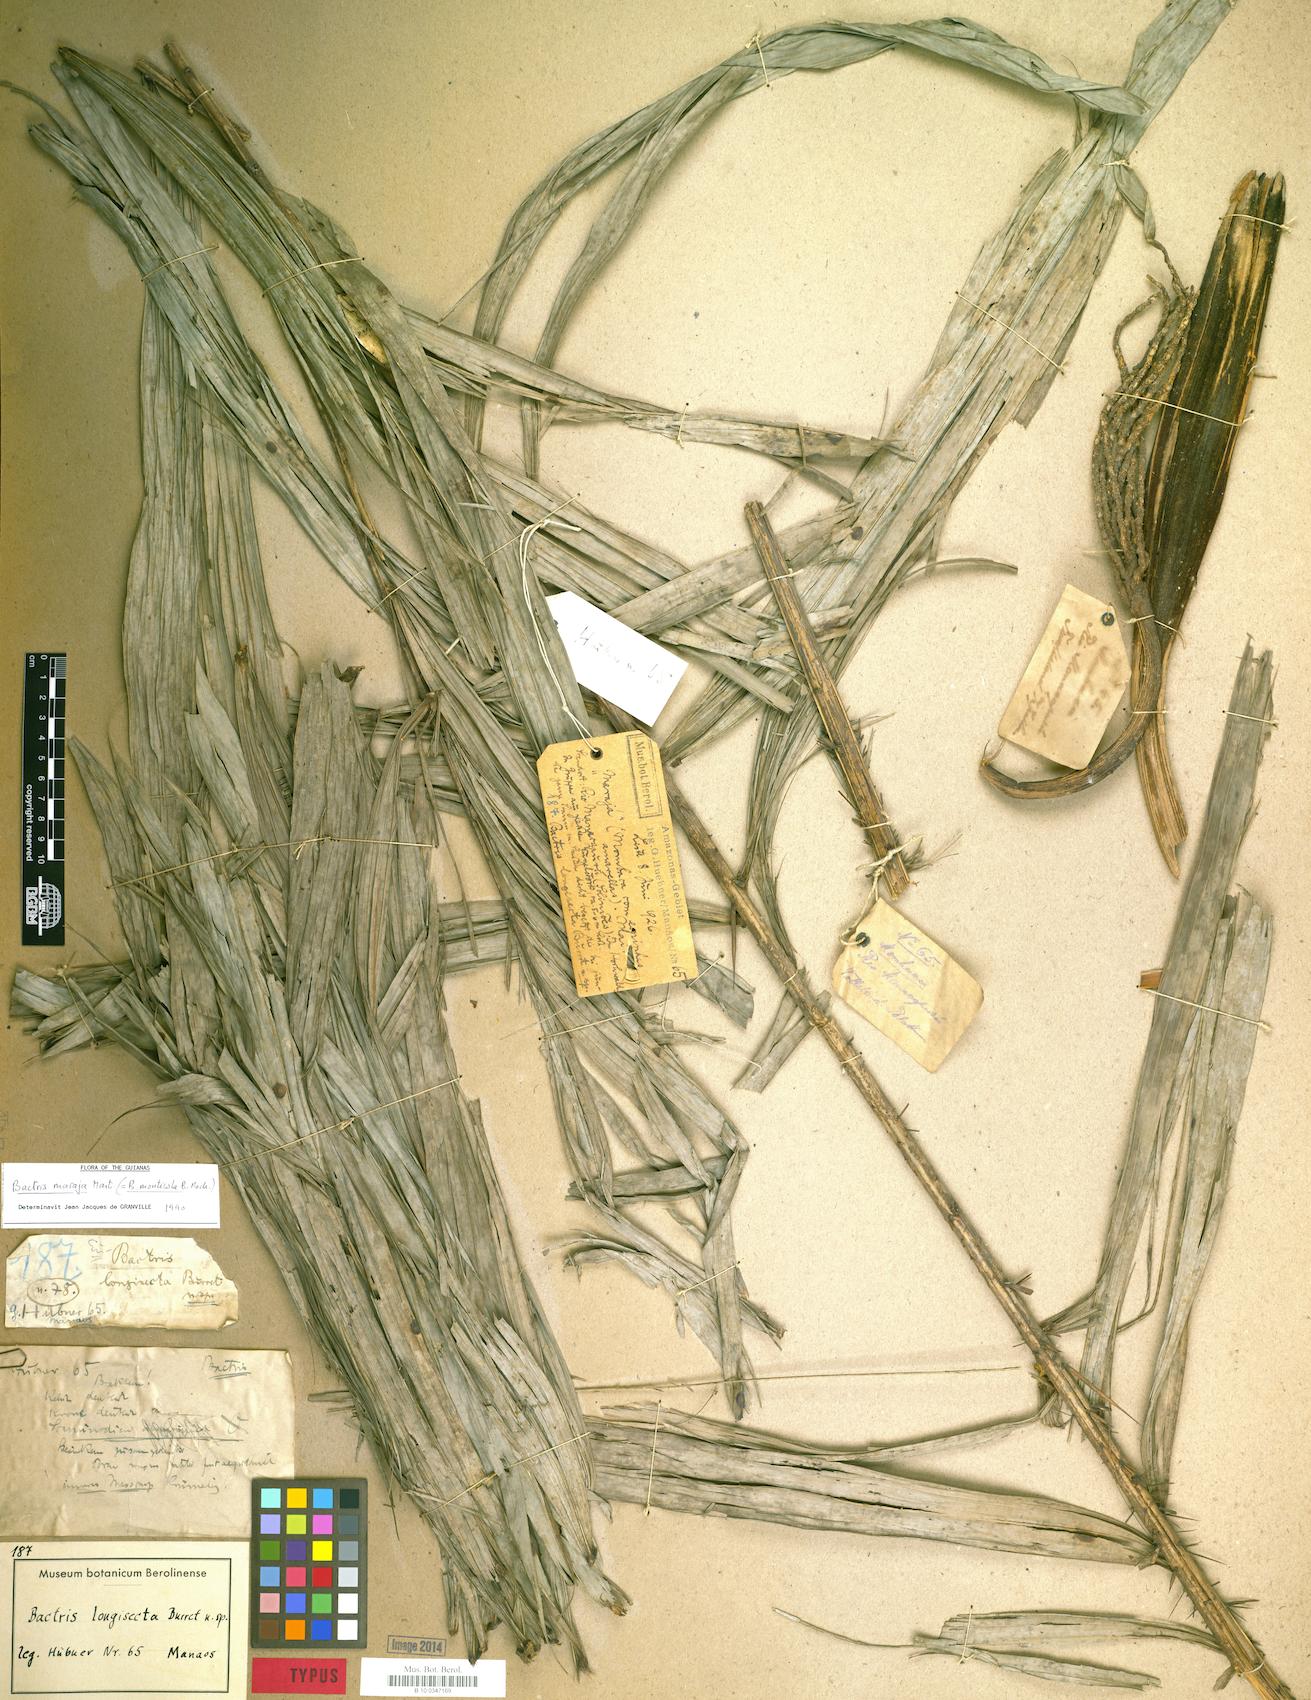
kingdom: Plantae
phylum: Tracheophyta
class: Liliopsida
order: Arecales
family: Arecaceae
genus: Bactris
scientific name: Bactris maraja
